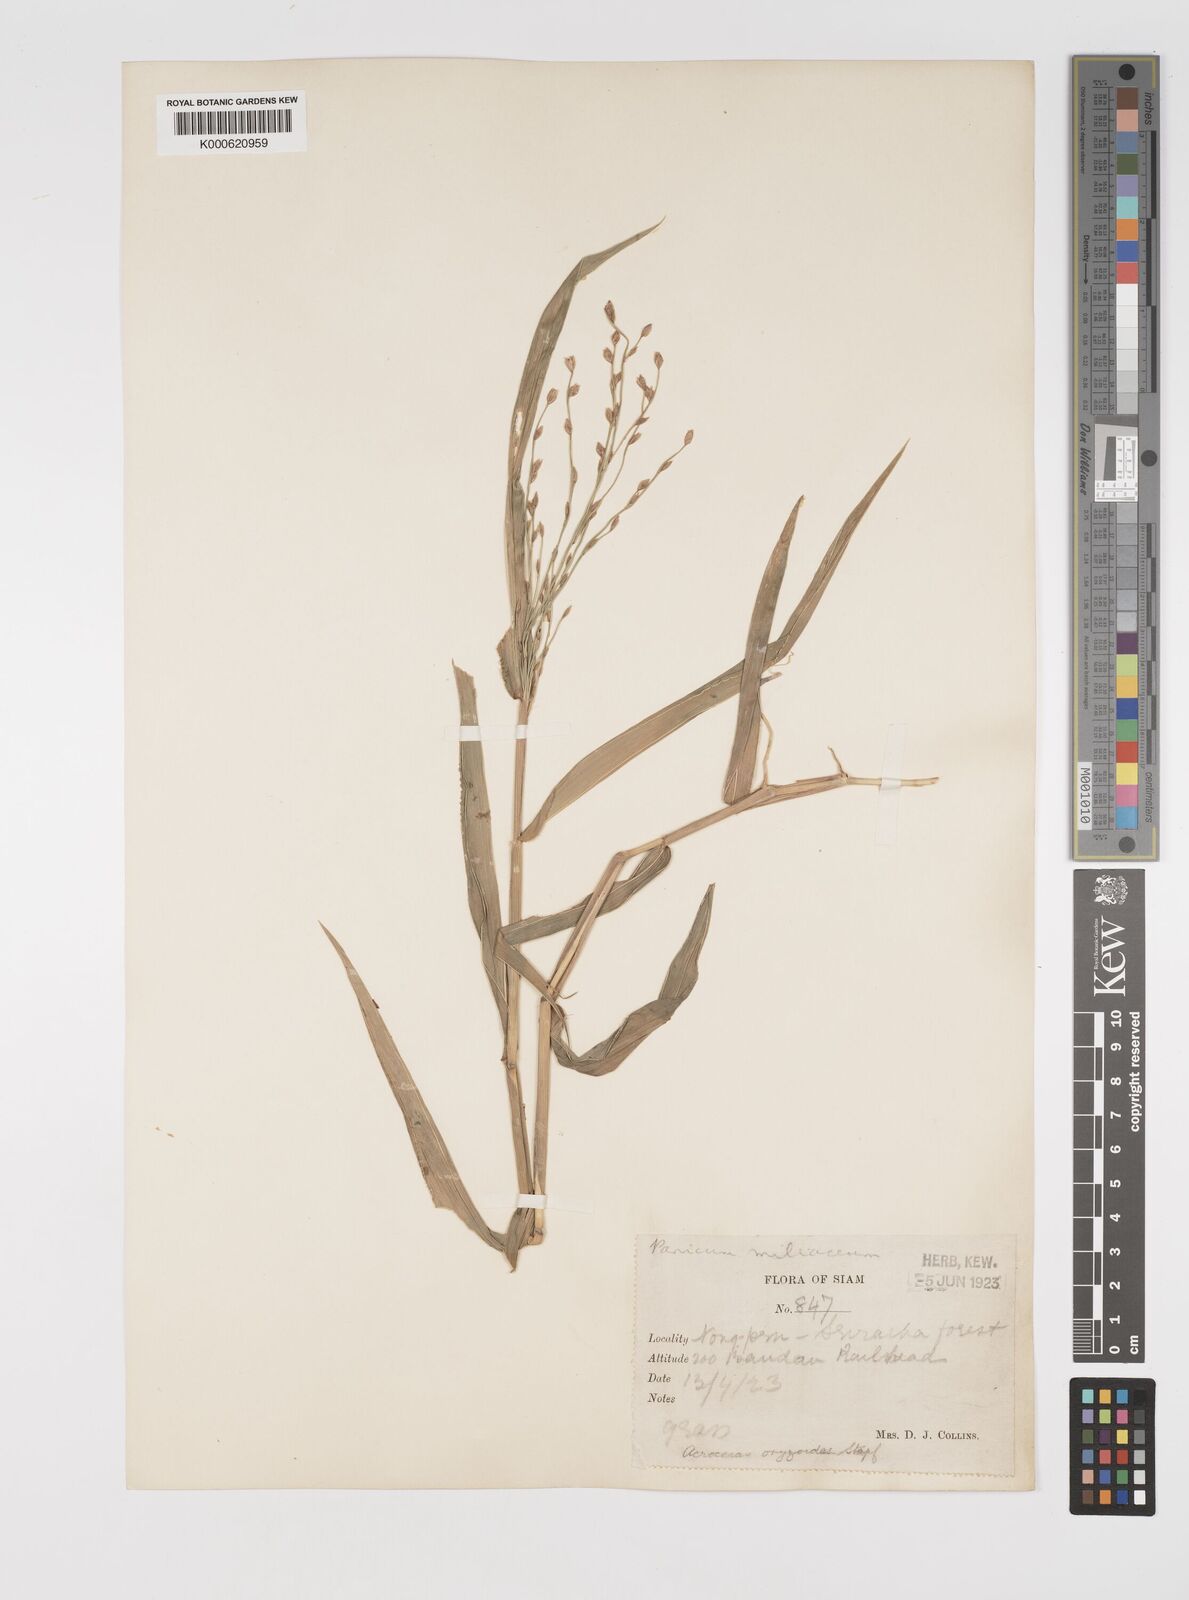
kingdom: Plantae
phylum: Tracheophyta
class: Liliopsida
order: Poales
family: Poaceae
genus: Acroceras
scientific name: Acroceras
